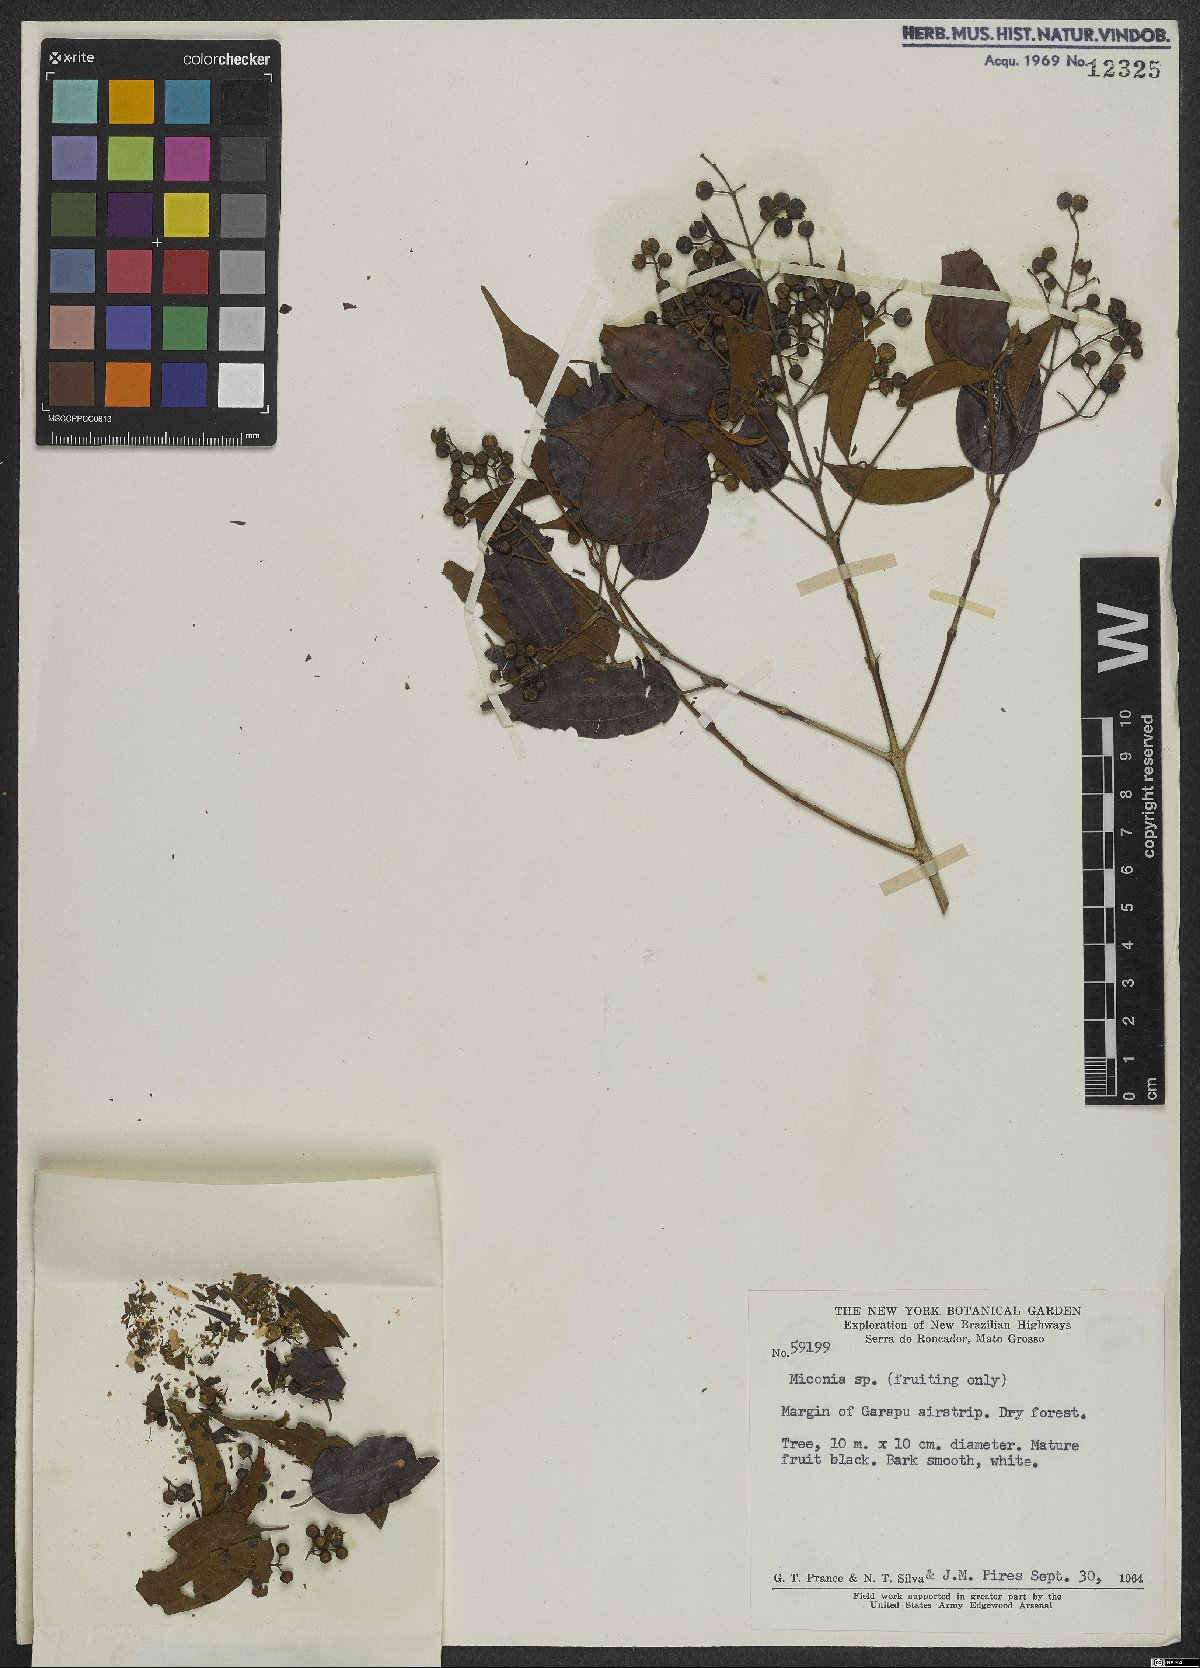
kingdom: Plantae
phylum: Tracheophyta
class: Magnoliopsida
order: Myrtales
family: Melastomataceae
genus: Miconia
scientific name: Miconia
